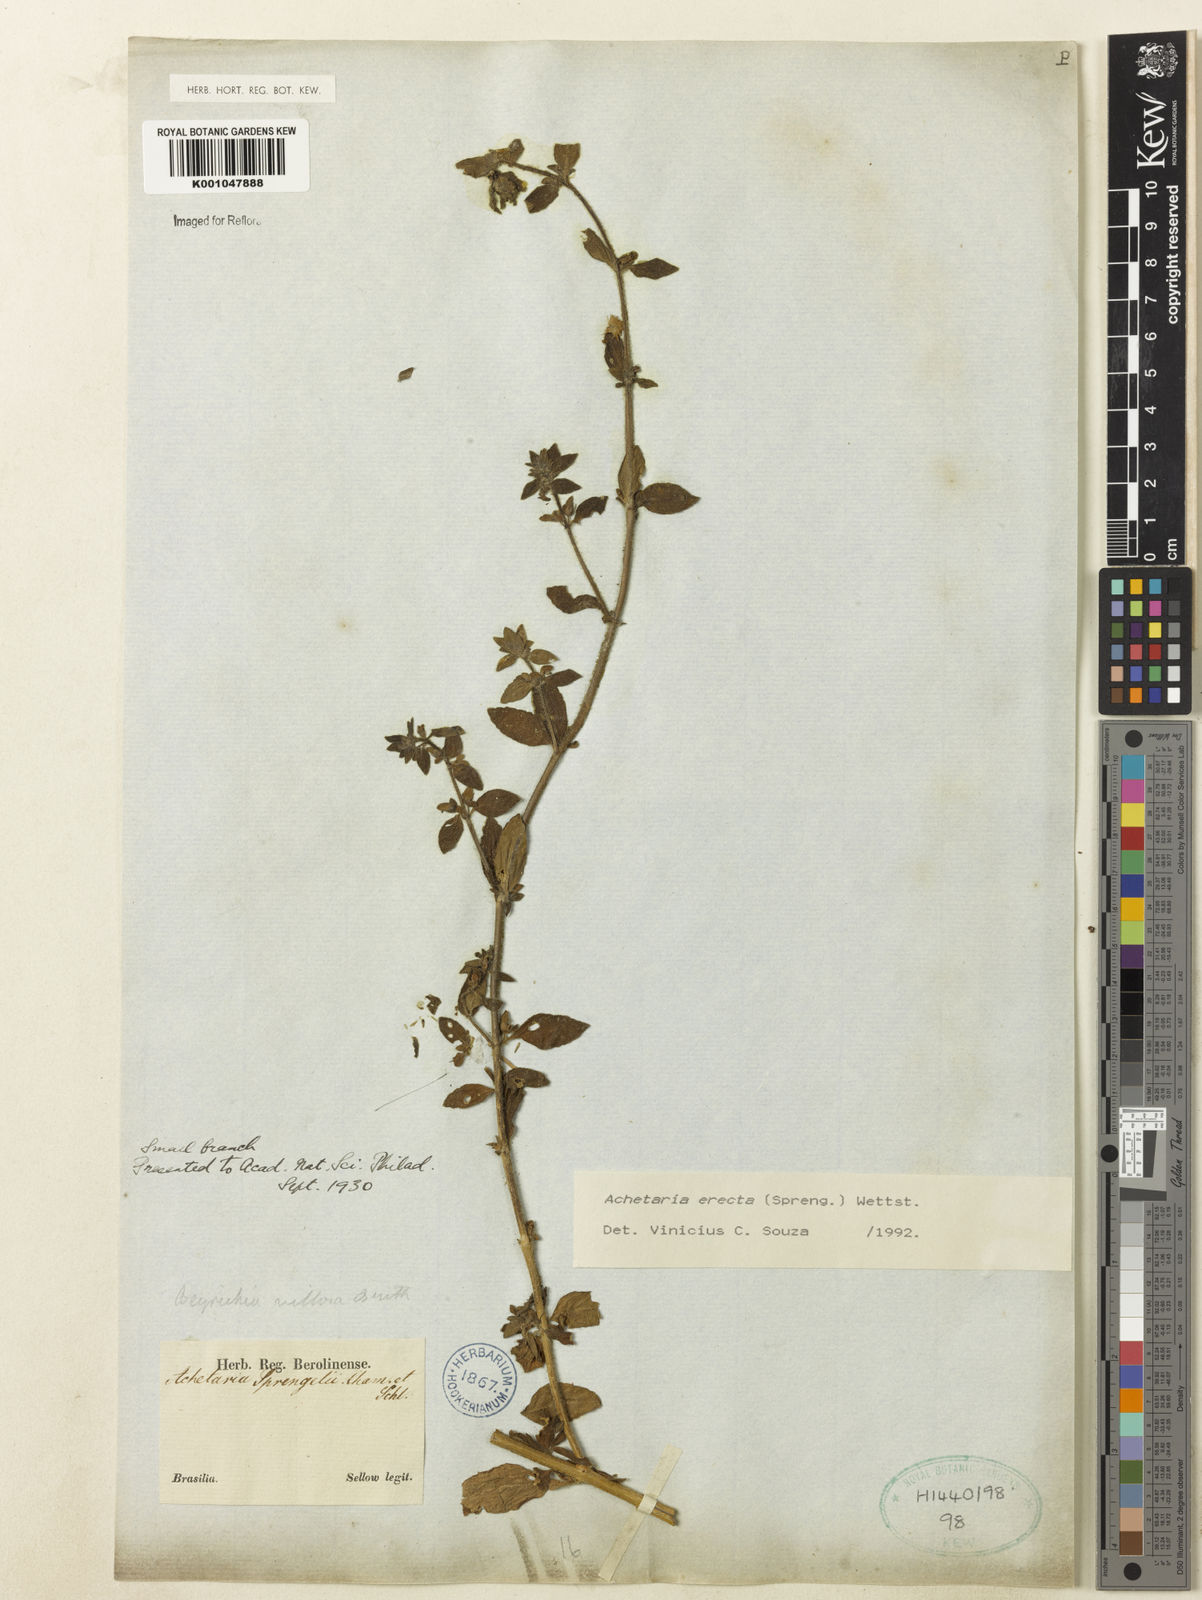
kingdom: Plantae
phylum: Tracheophyta
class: Magnoliopsida
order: Lamiales
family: Plantaginaceae
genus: Matourea
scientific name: Matourea erecta
